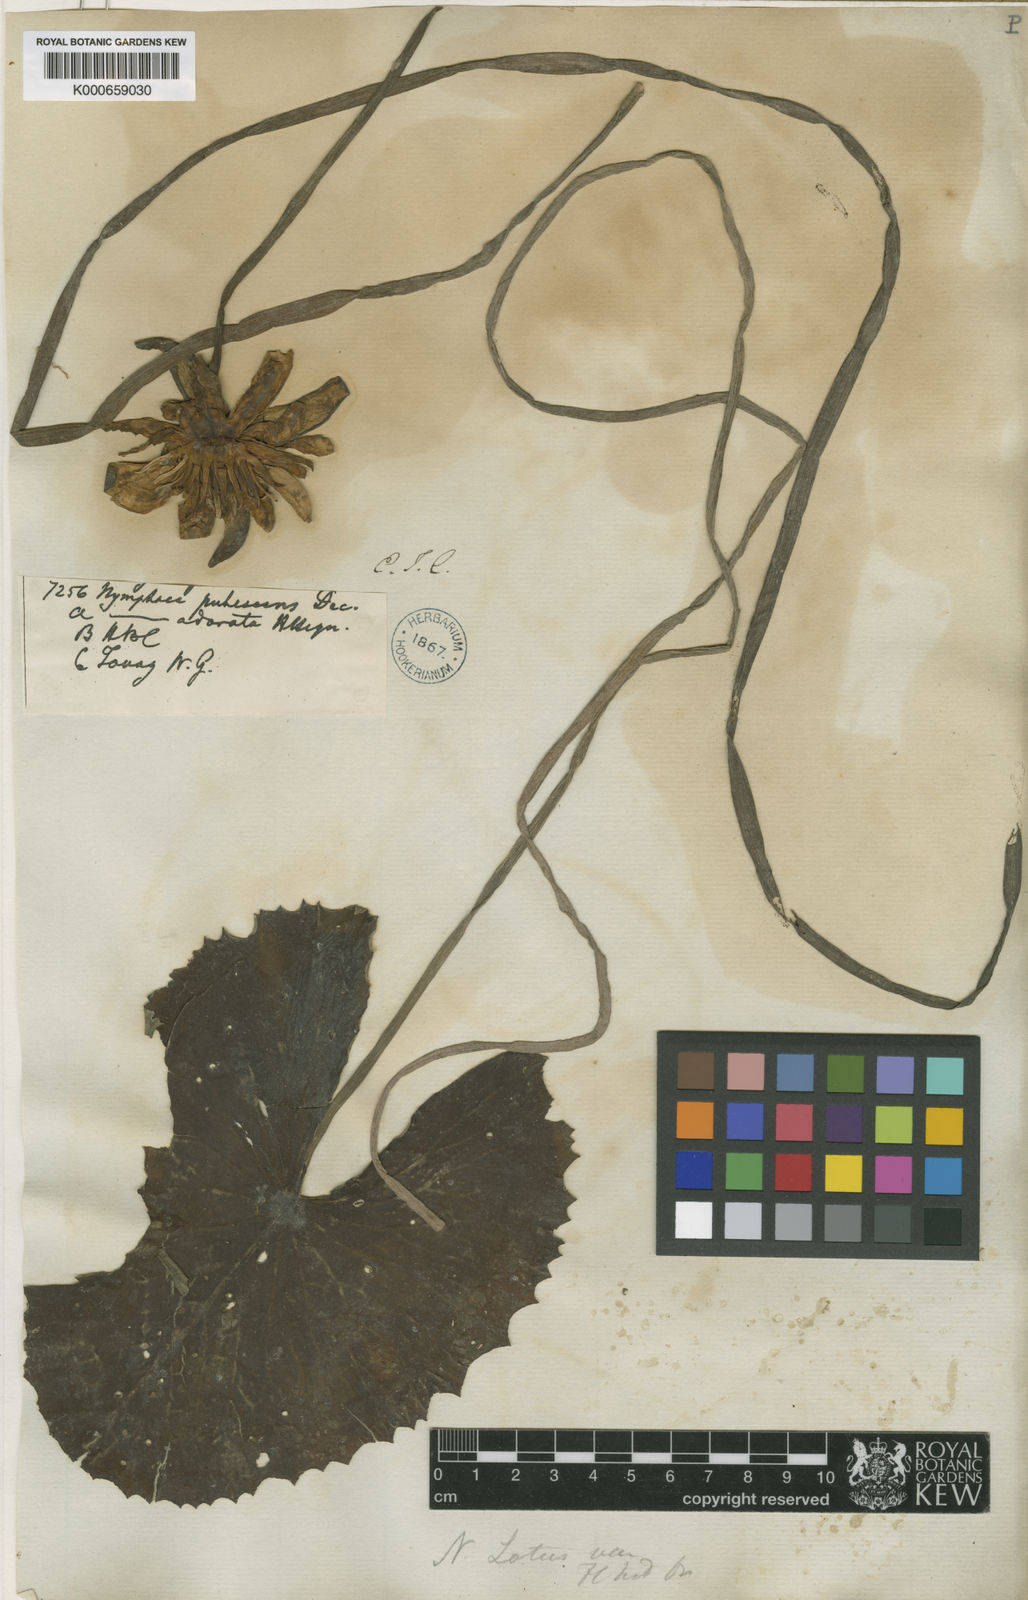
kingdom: Plantae
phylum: Tracheophyta
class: Magnoliopsida
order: Nymphaeales
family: Nymphaeaceae
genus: Nymphaea
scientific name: Nymphaea lotus
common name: White egyptian lotus
